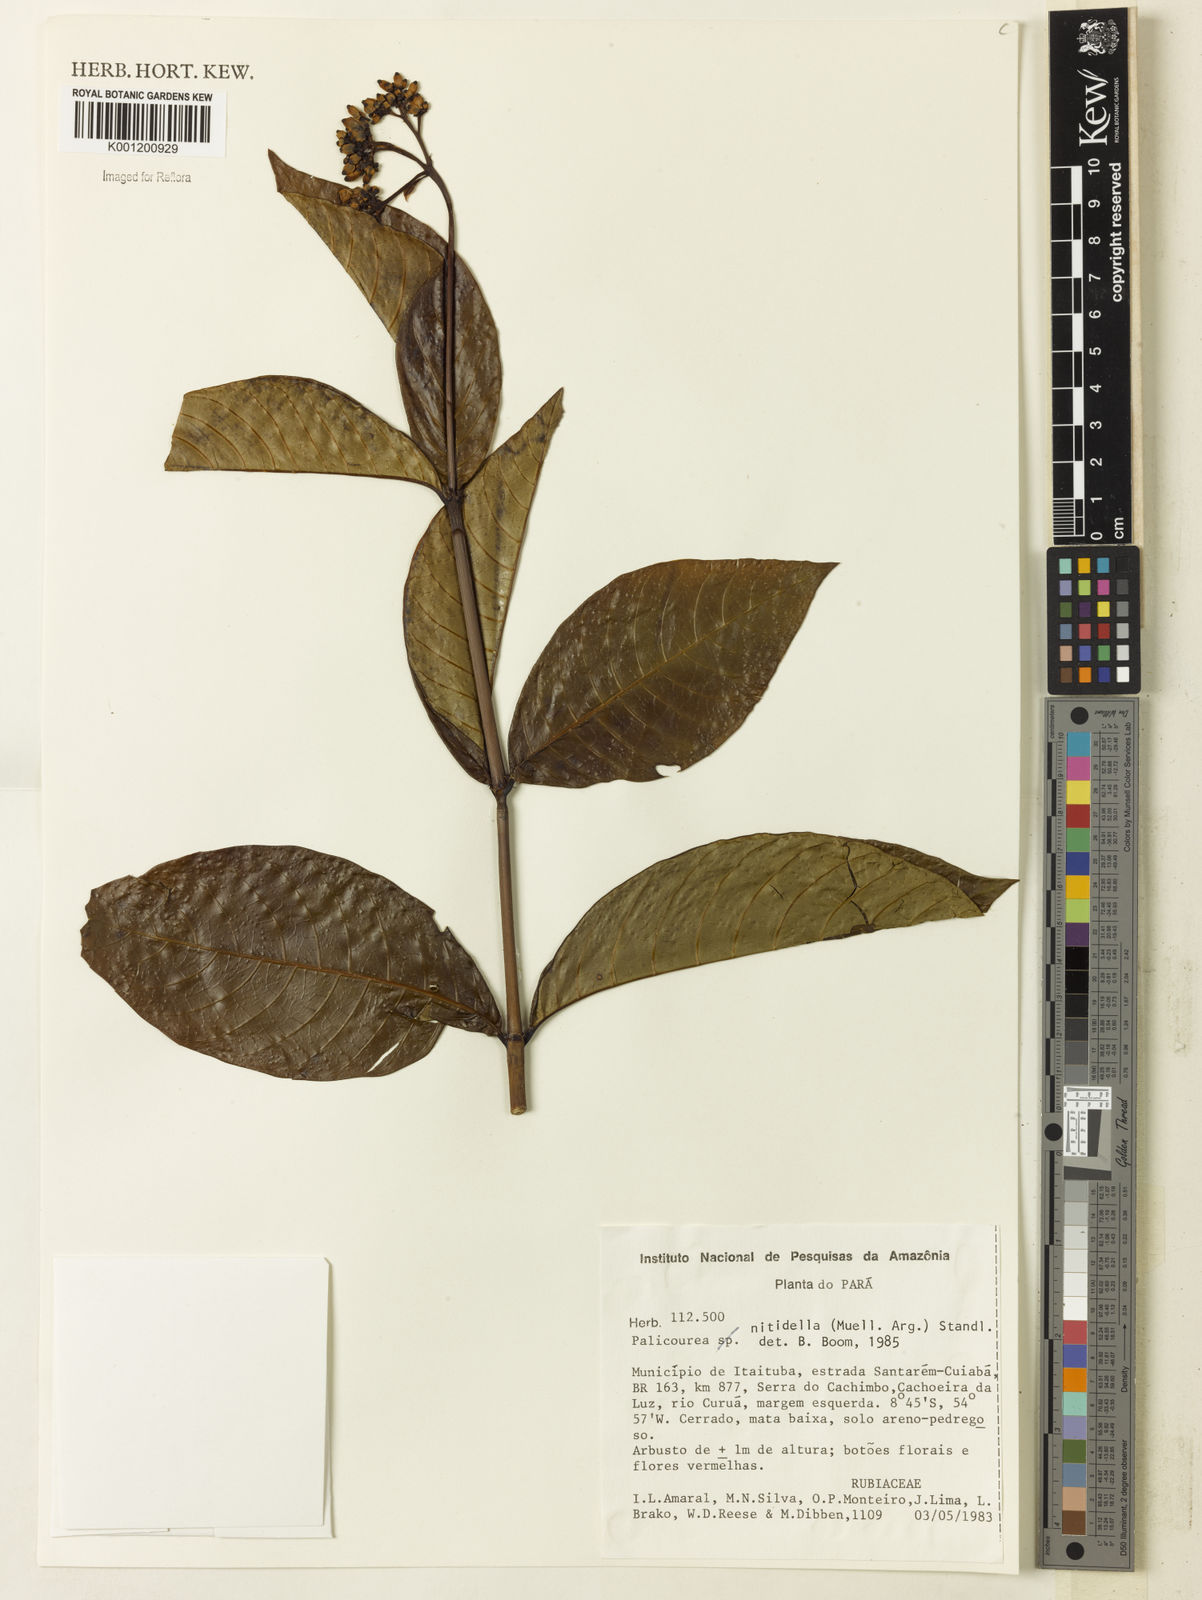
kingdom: Plantae
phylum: Tracheophyta
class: Magnoliopsida
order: Gentianales
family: Rubiaceae
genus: Palicourea
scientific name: Palicourea
